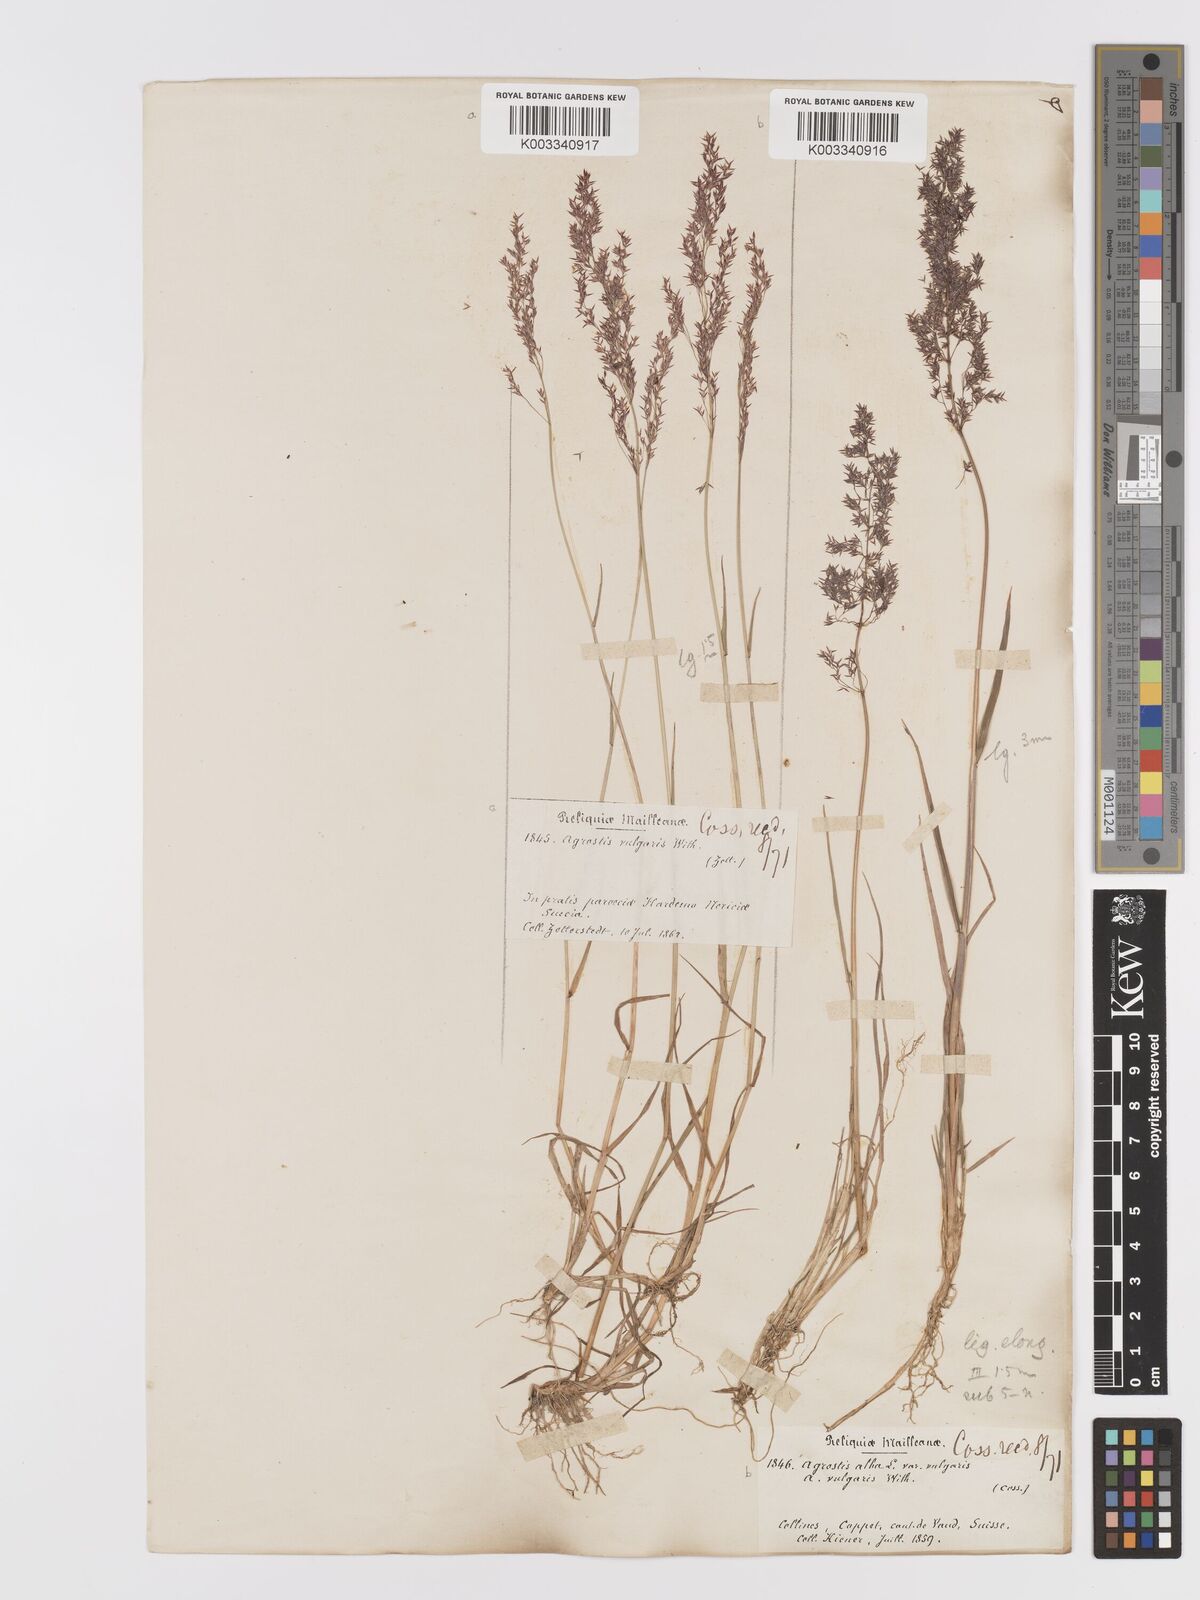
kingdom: Plantae
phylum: Tracheophyta
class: Liliopsida
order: Poales
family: Poaceae
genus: Agrostis
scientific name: Agrostis capillaris
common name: Colonial bentgrass
